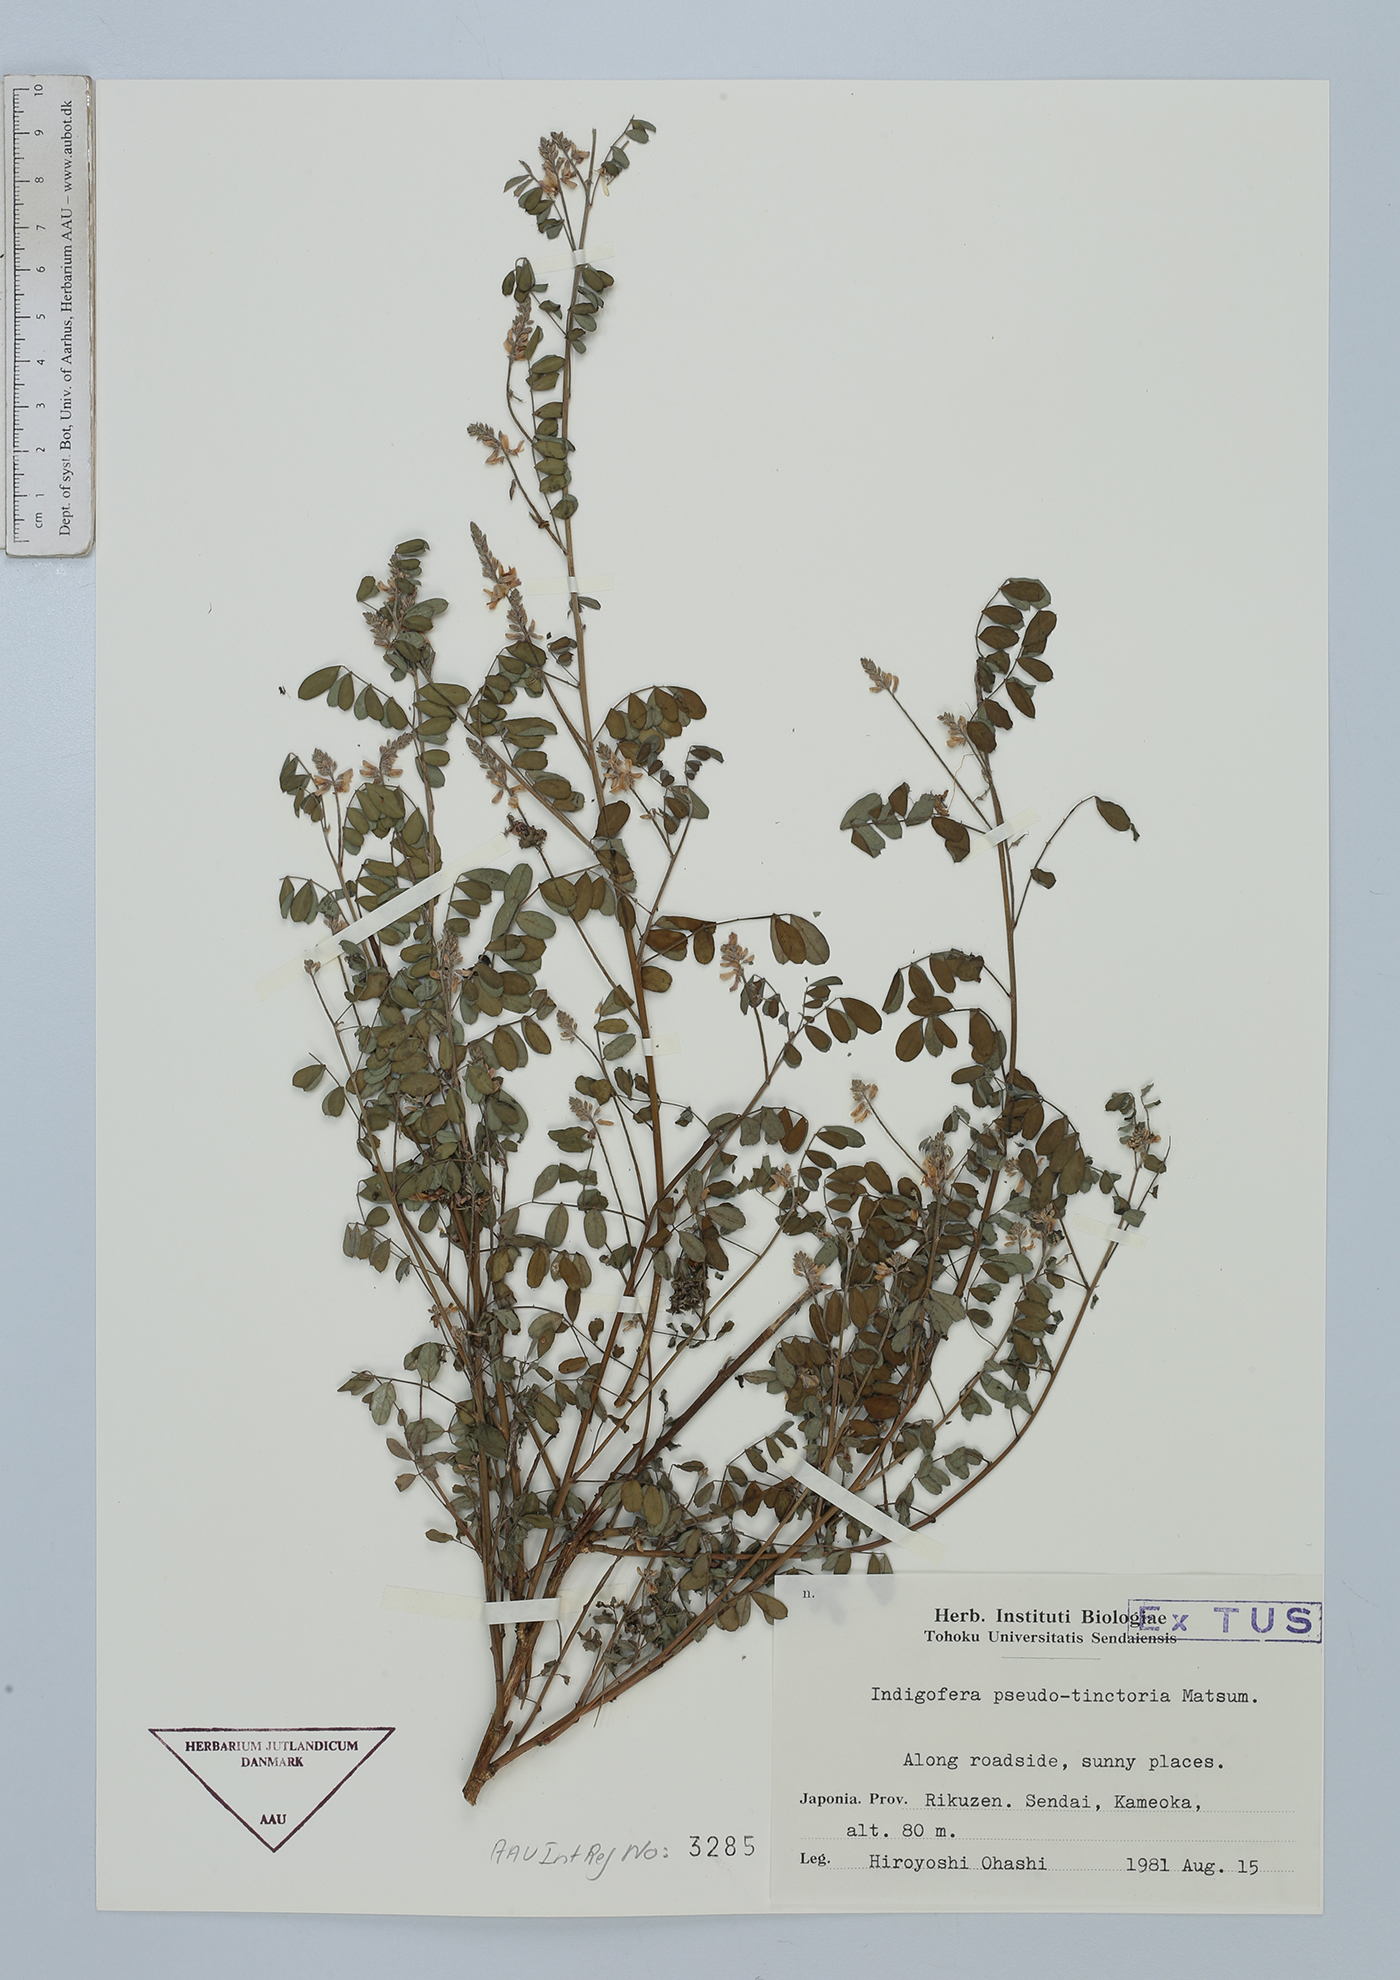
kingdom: Plantae
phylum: Tracheophyta
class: Magnoliopsida
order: Fabales
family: Fabaceae
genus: Indigofera
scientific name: Indigofera bungeana
